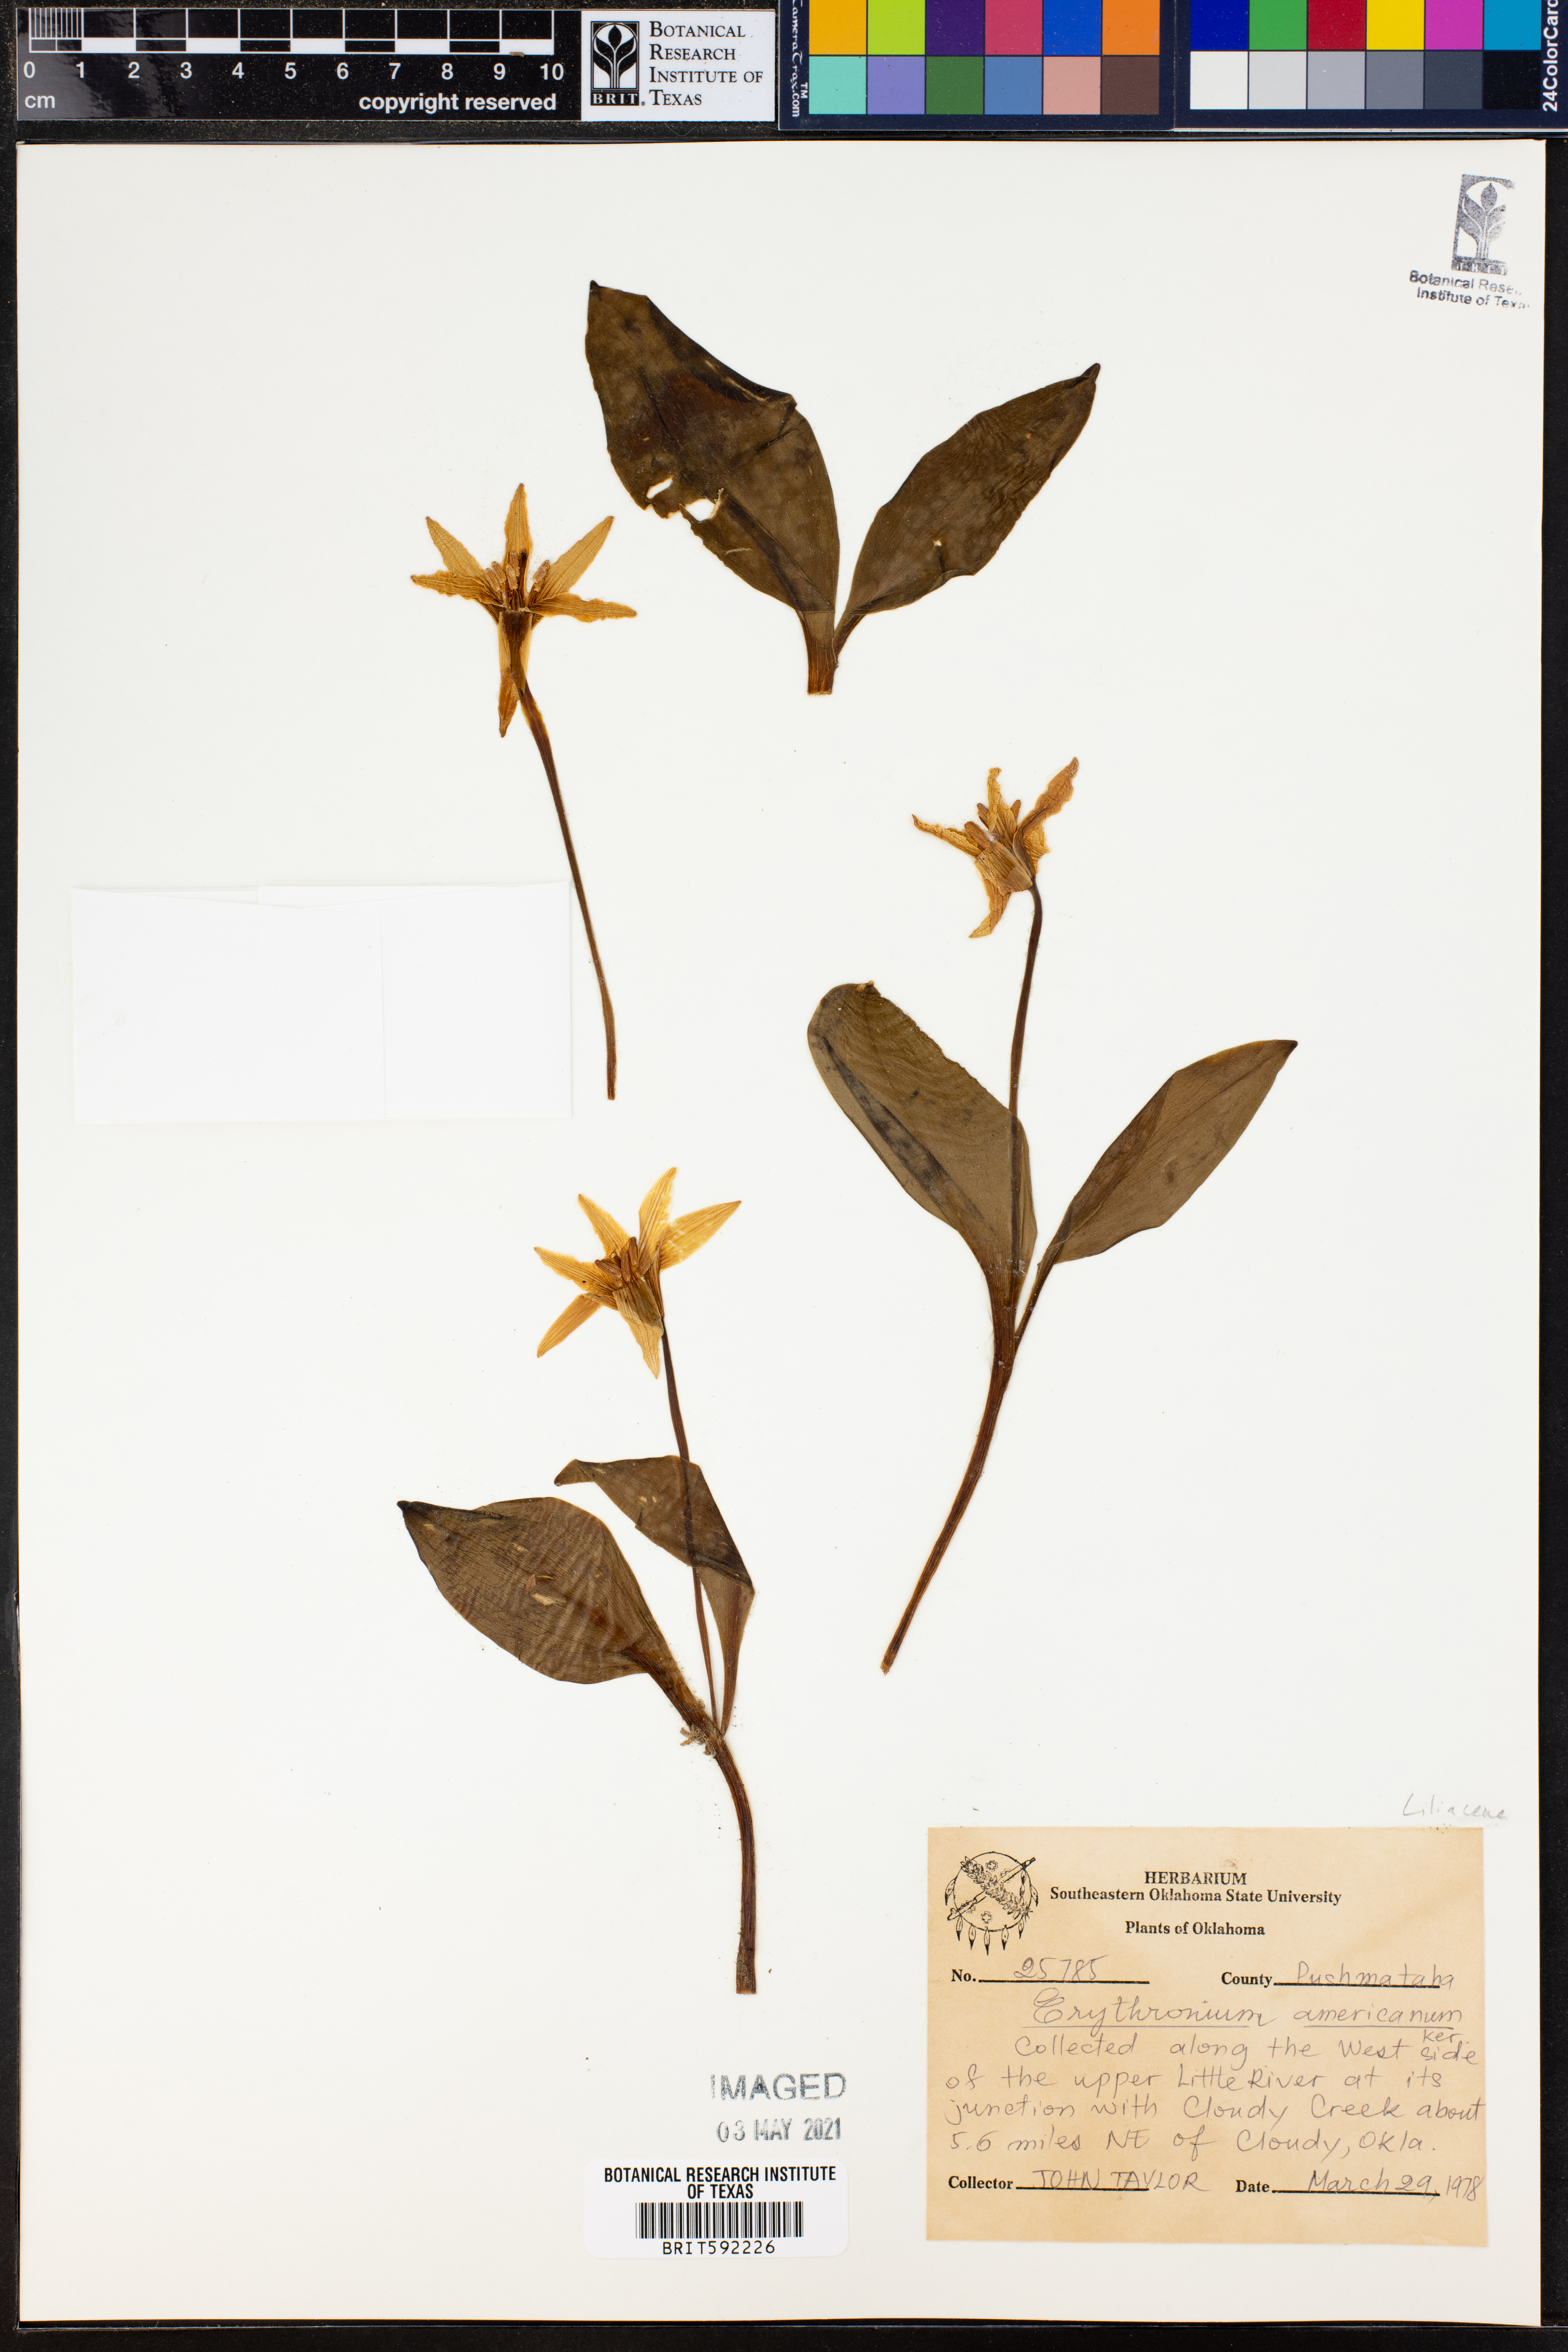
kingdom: Plantae
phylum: Tracheophyta
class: Liliopsida
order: Liliales
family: Liliaceae
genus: Erythronium
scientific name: Erythronium americanum
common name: Yellow adder's-tongue
